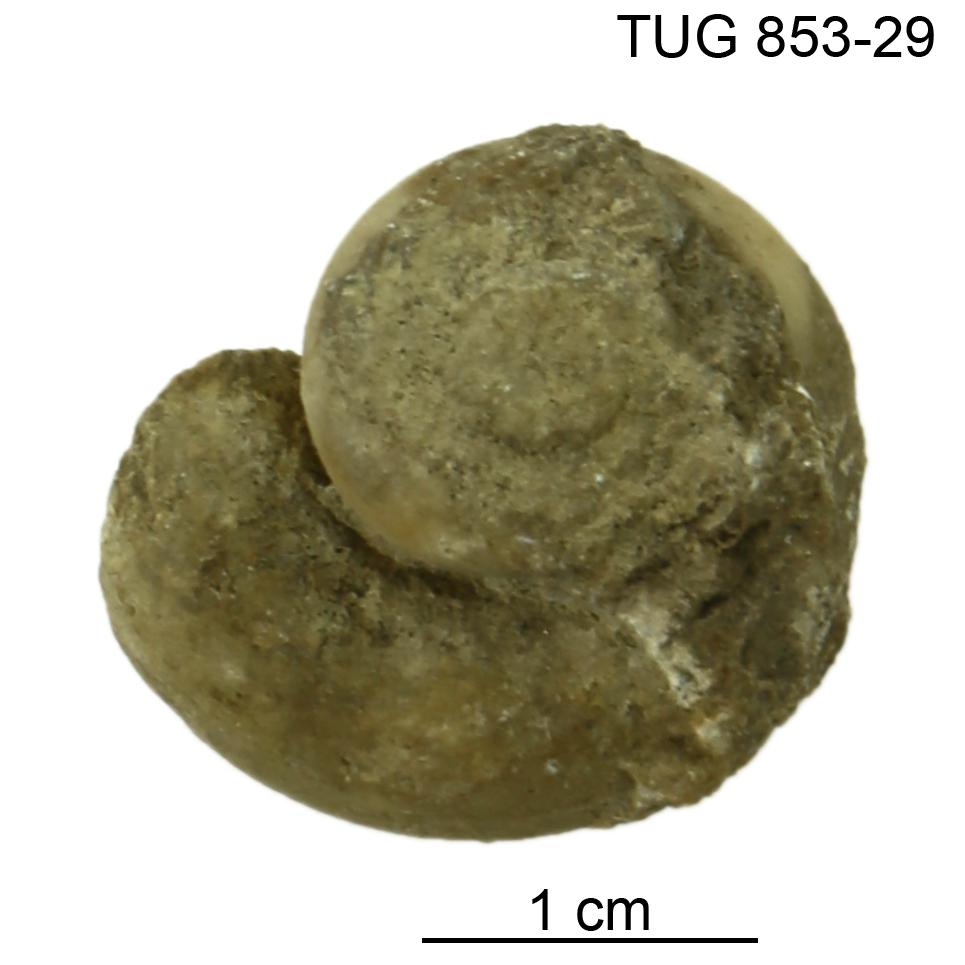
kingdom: Animalia
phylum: Mollusca
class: Gastropoda
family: Euomphalidae
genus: Euomphalus
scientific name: Euomphalus
